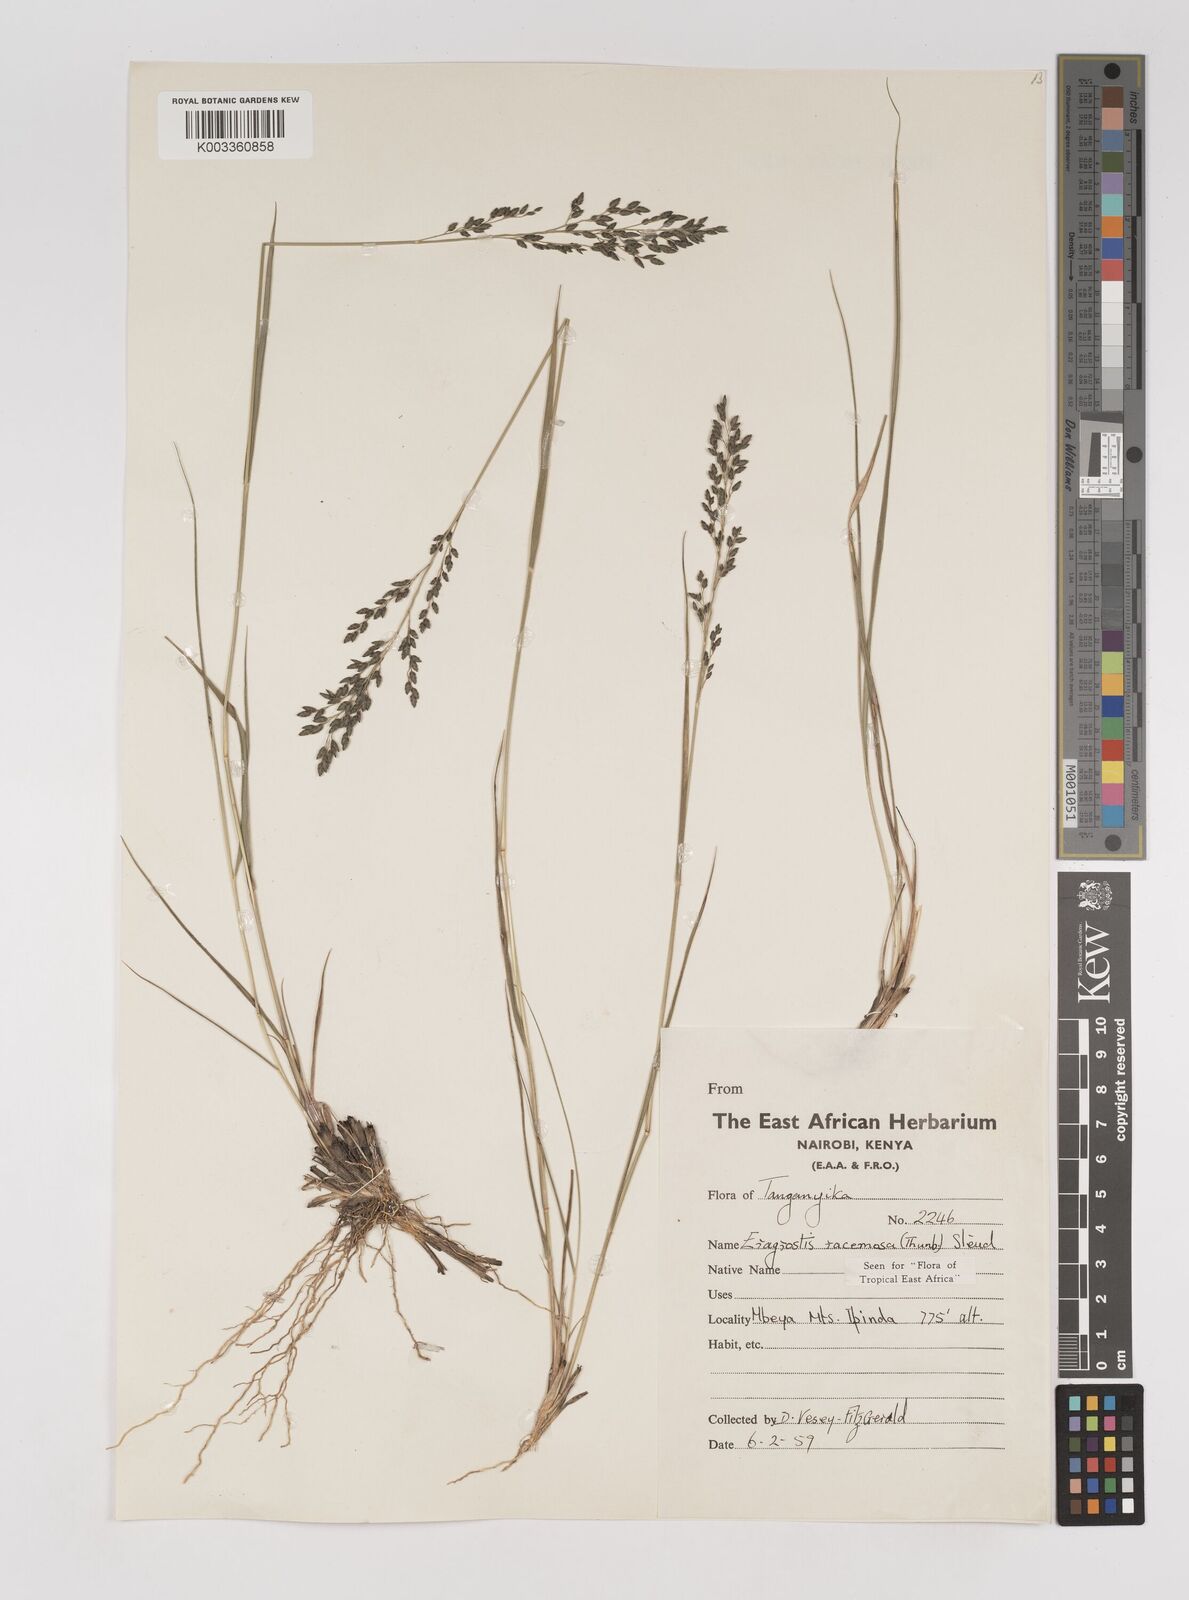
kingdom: Plantae
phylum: Tracheophyta
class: Liliopsida
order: Poales
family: Poaceae
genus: Eragrostis
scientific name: Eragrostis racemosa
